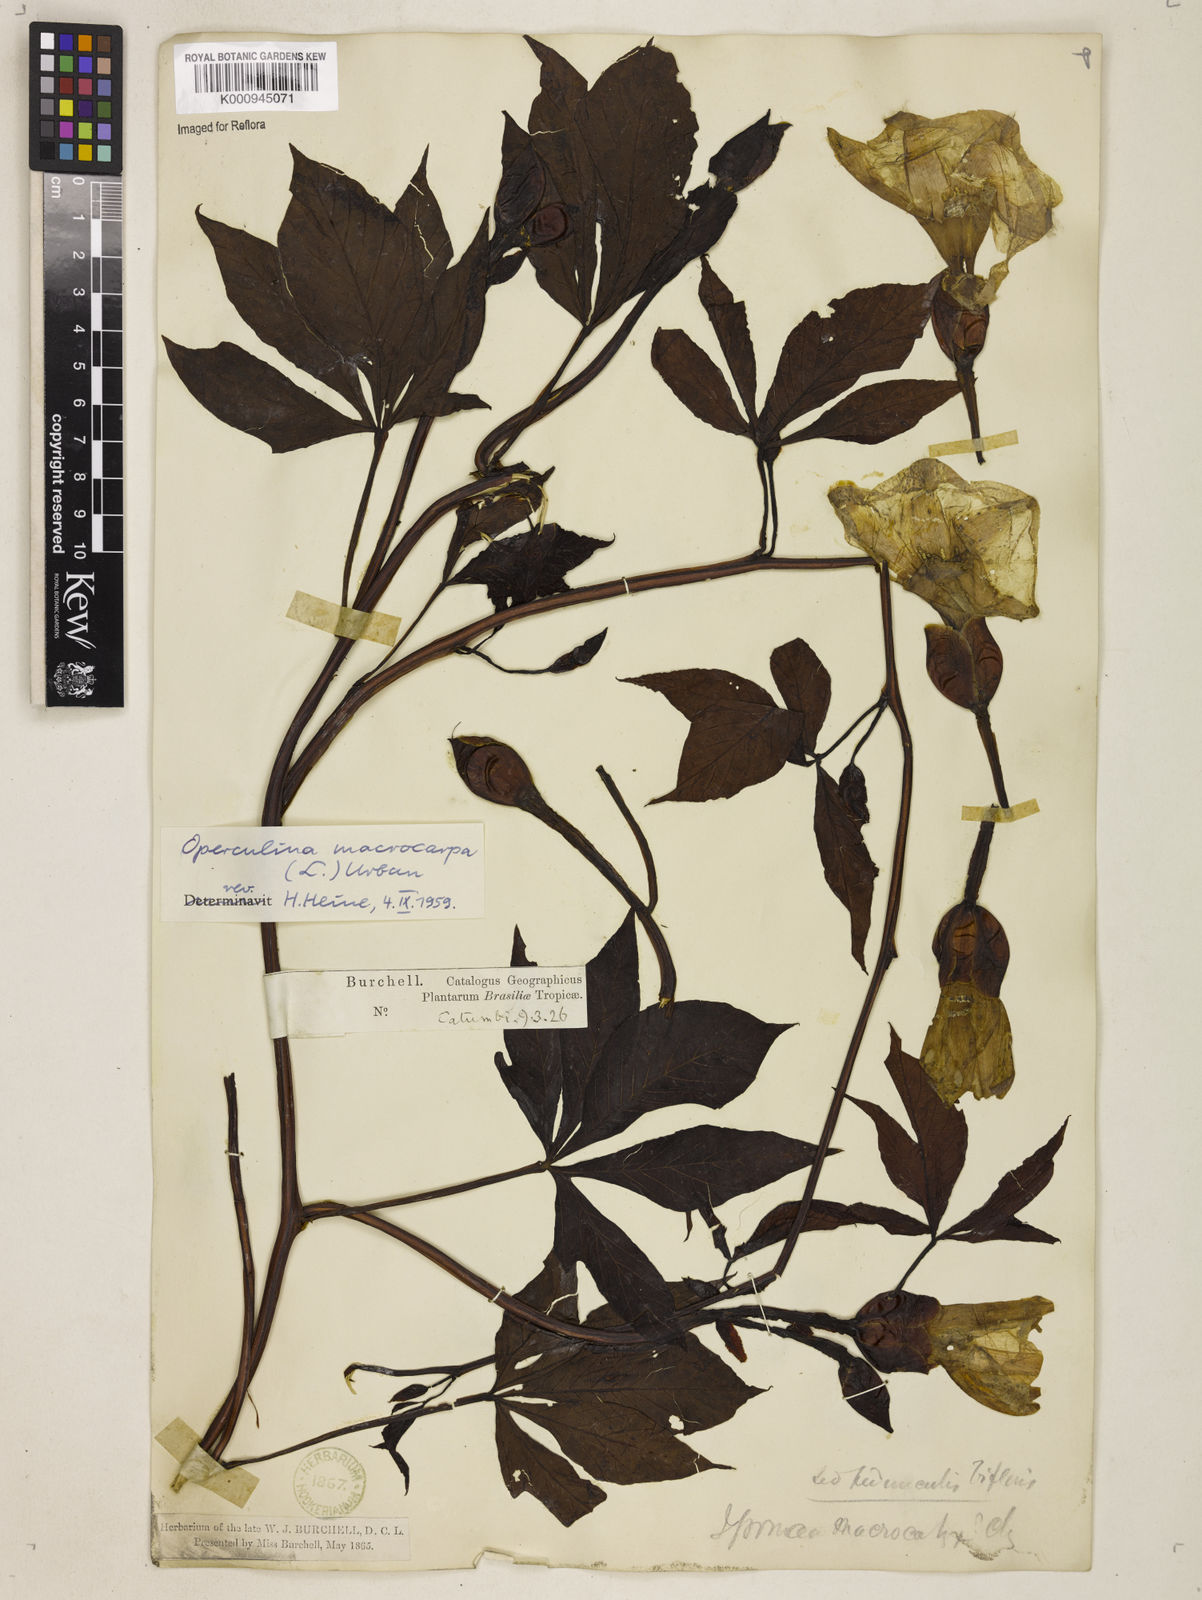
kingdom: Plantae
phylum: Tracheophyta
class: Magnoliopsida
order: Solanales
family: Convolvulaceae
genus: Operculina
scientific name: Operculina macrocarpa
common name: Brazilian jalap
